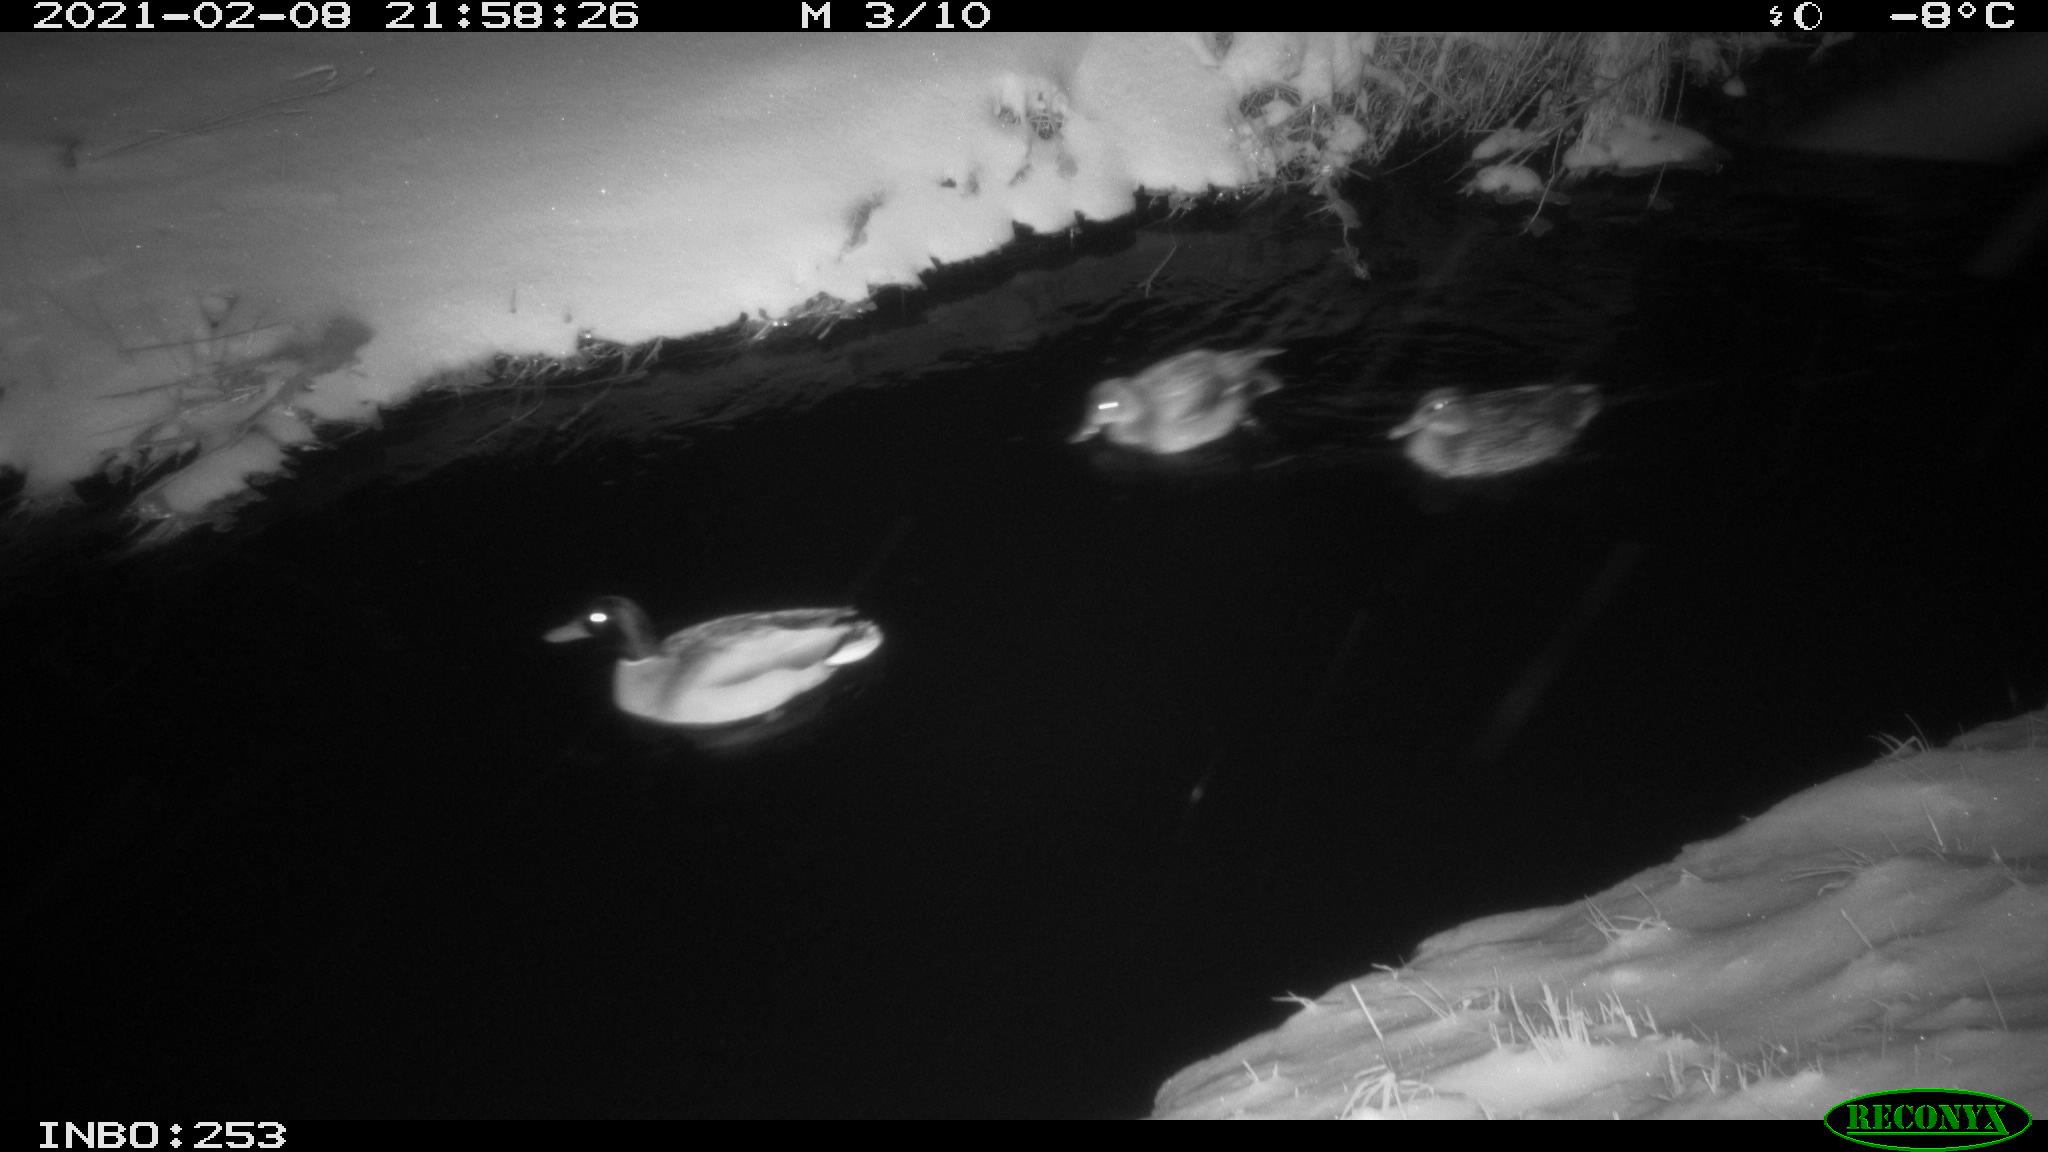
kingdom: Animalia
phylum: Chordata
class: Aves
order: Anseriformes
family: Anatidae
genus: Anas
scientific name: Anas platyrhynchos
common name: Mallard
